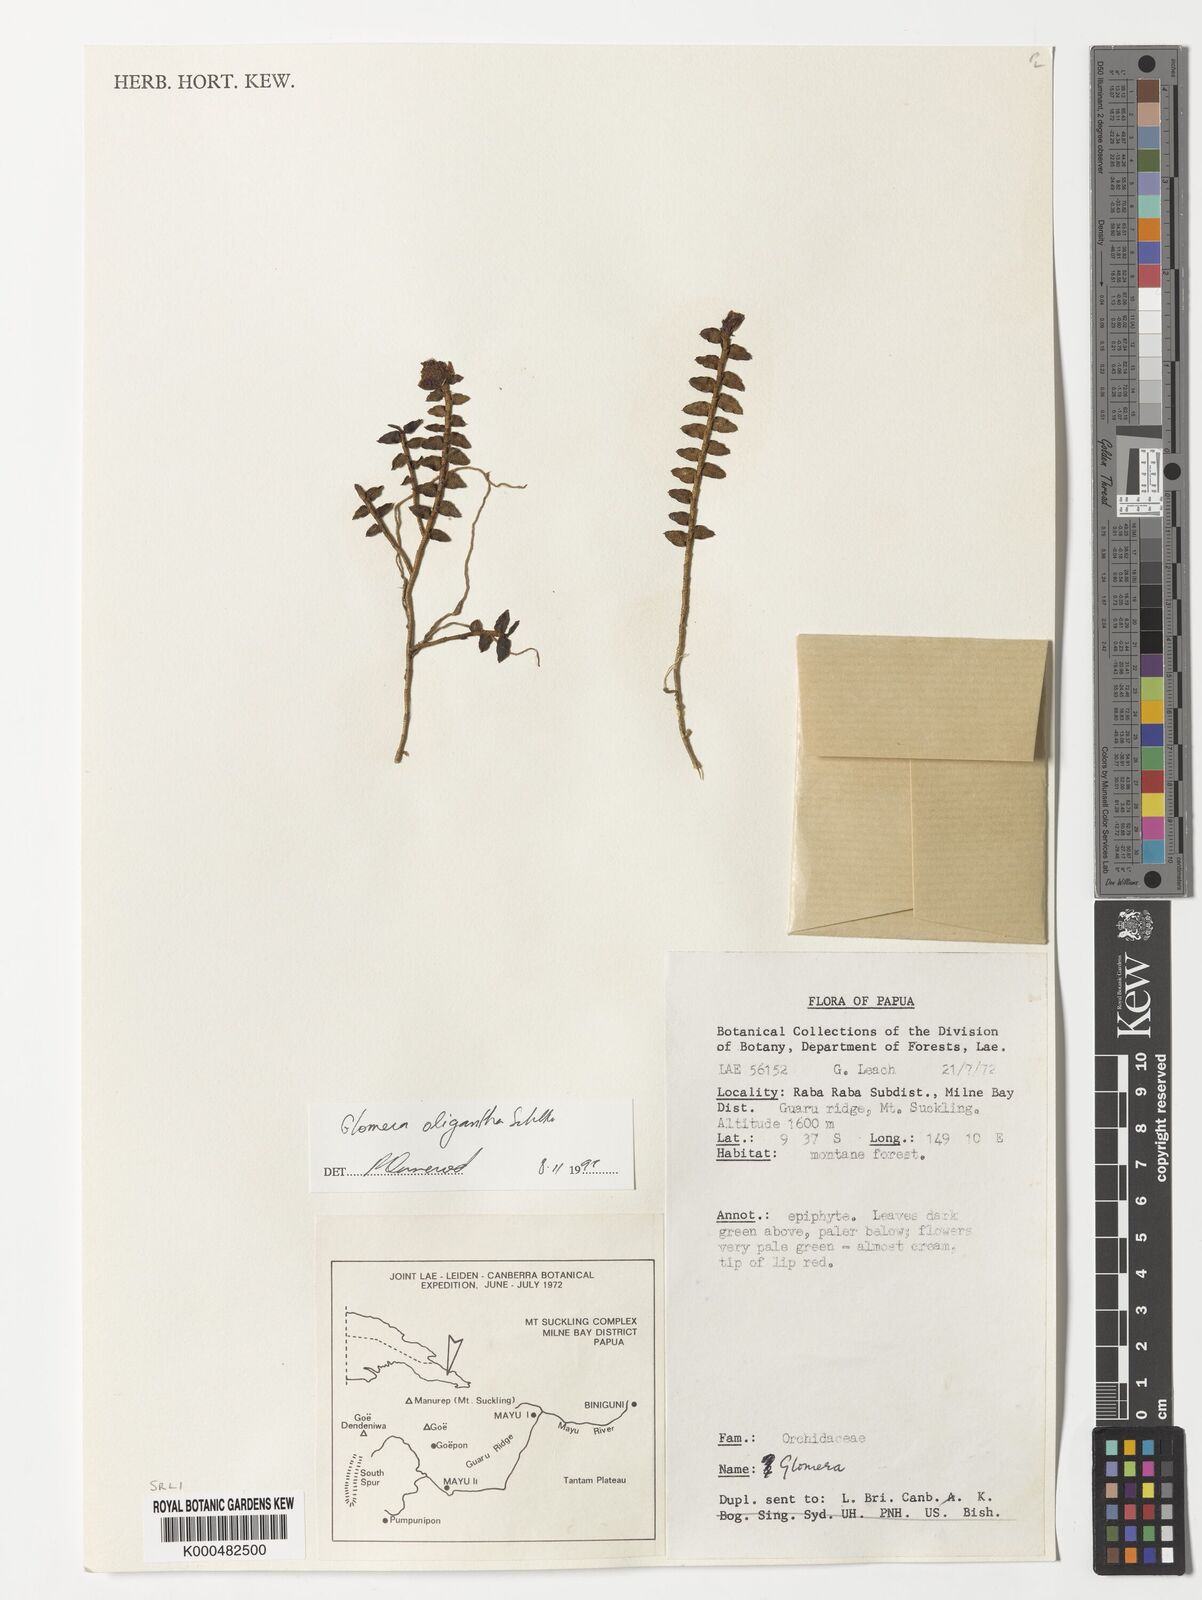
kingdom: Plantae
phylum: Tracheophyta
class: Liliopsida
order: Asparagales
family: Orchidaceae
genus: Glomera
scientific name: Glomera oligantha
